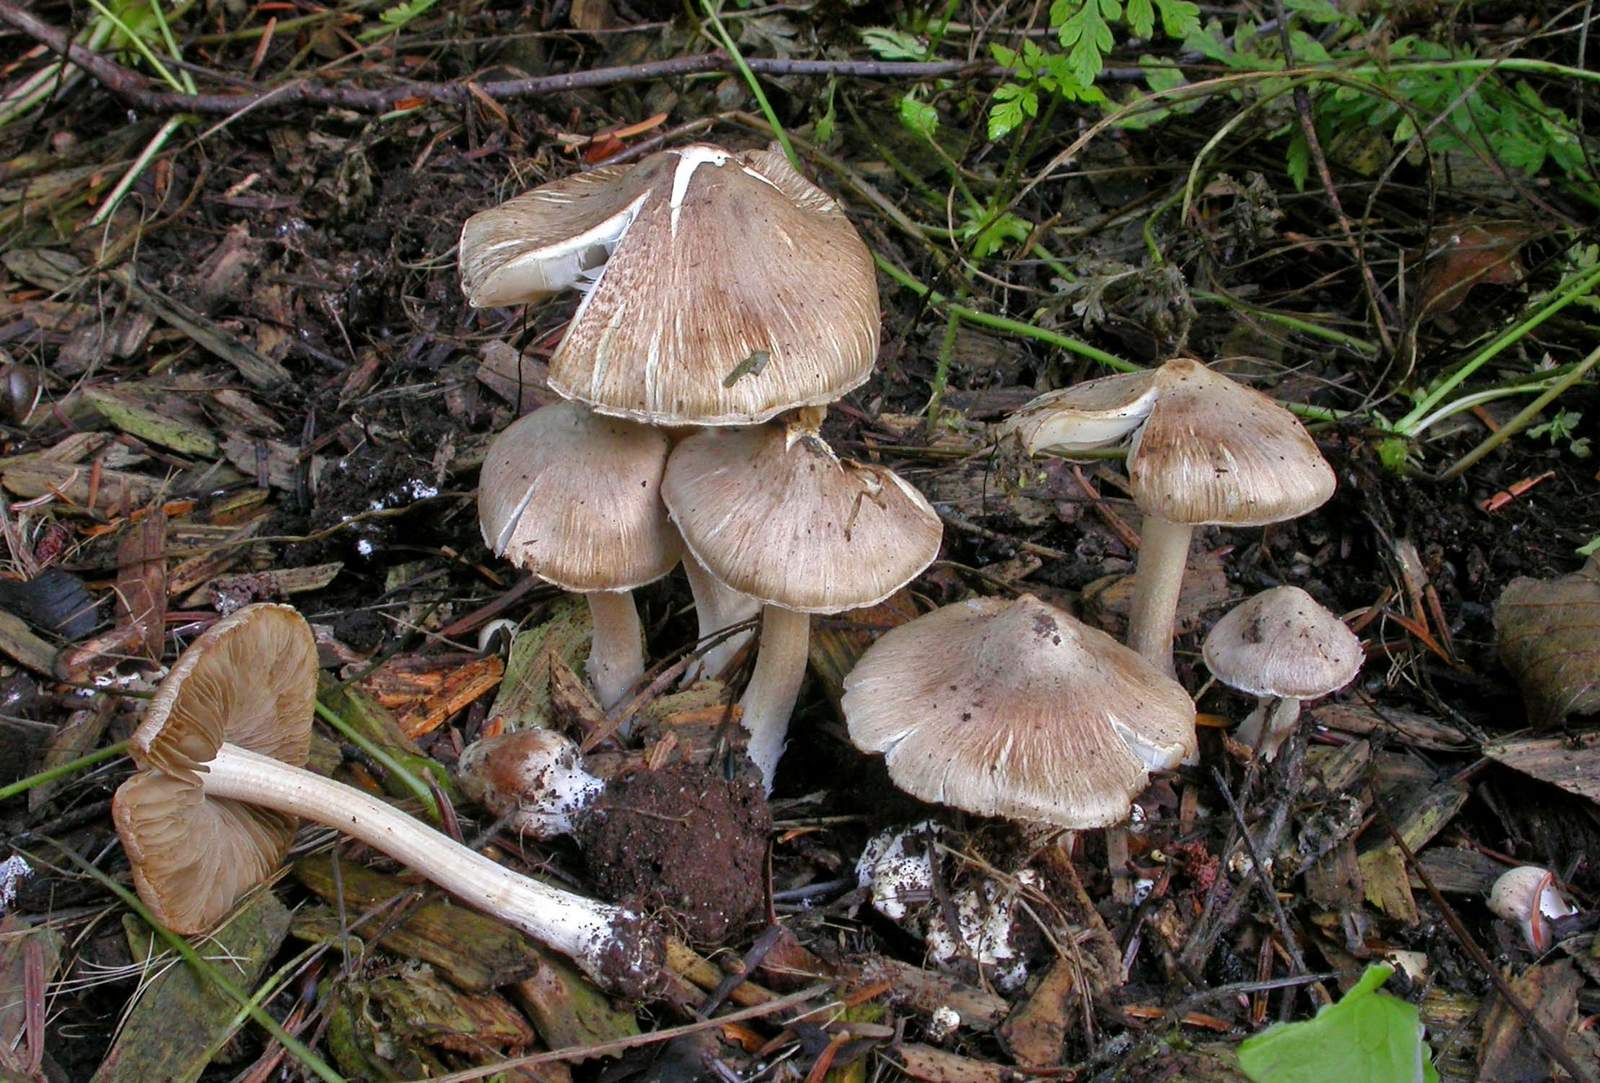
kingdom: Fungi
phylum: Basidiomycota
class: Agaricomycetes
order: Agaricales
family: Inocybaceae
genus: Inocybe
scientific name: Inocybe
